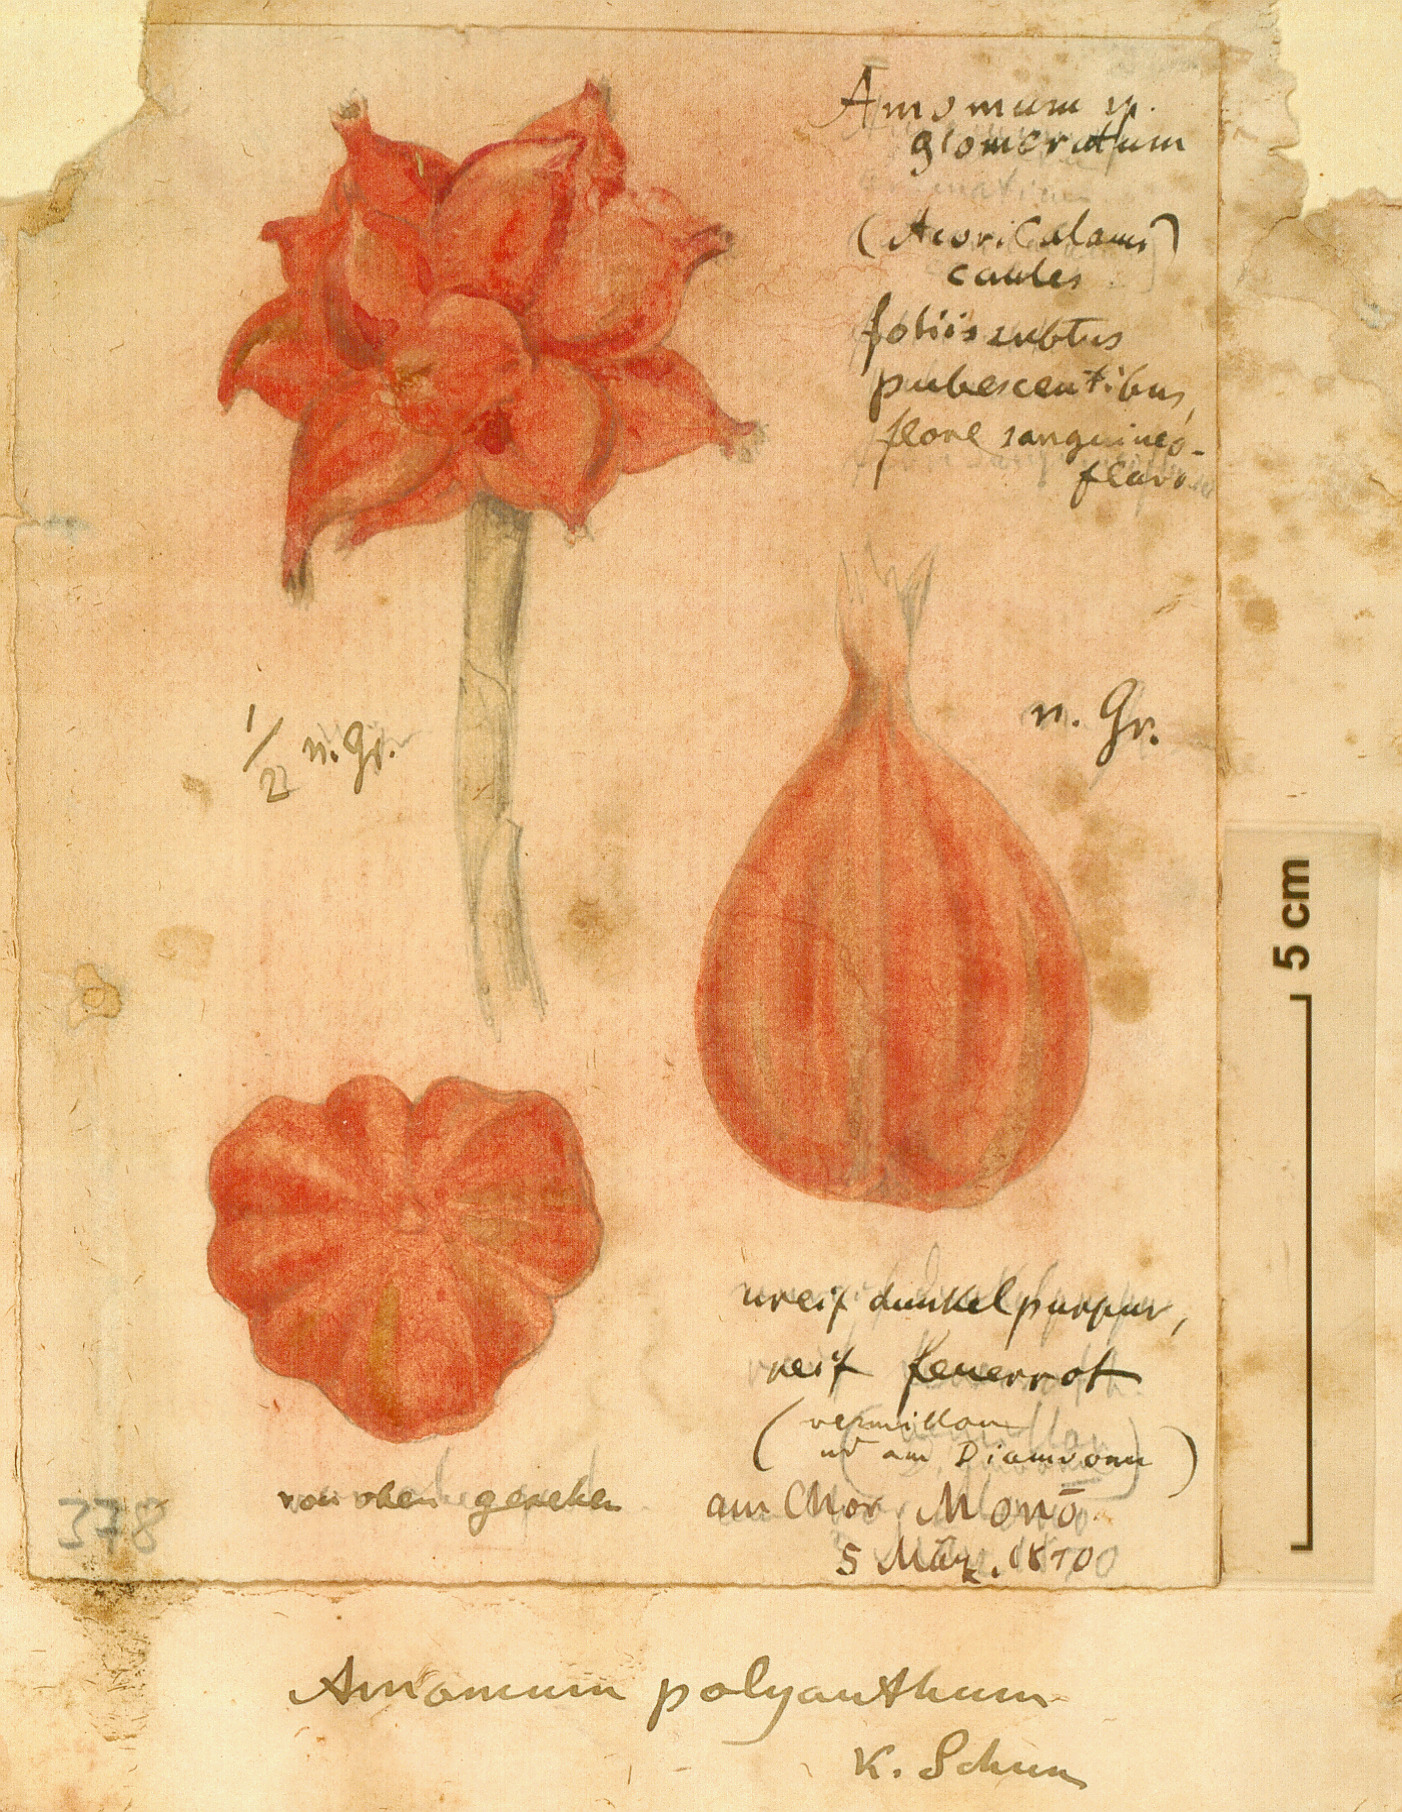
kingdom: Plantae
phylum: Tracheophyta
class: Liliopsida
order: Zingiberales
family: Zingiberaceae
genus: Aframomum
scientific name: Aframomum polyanthum
